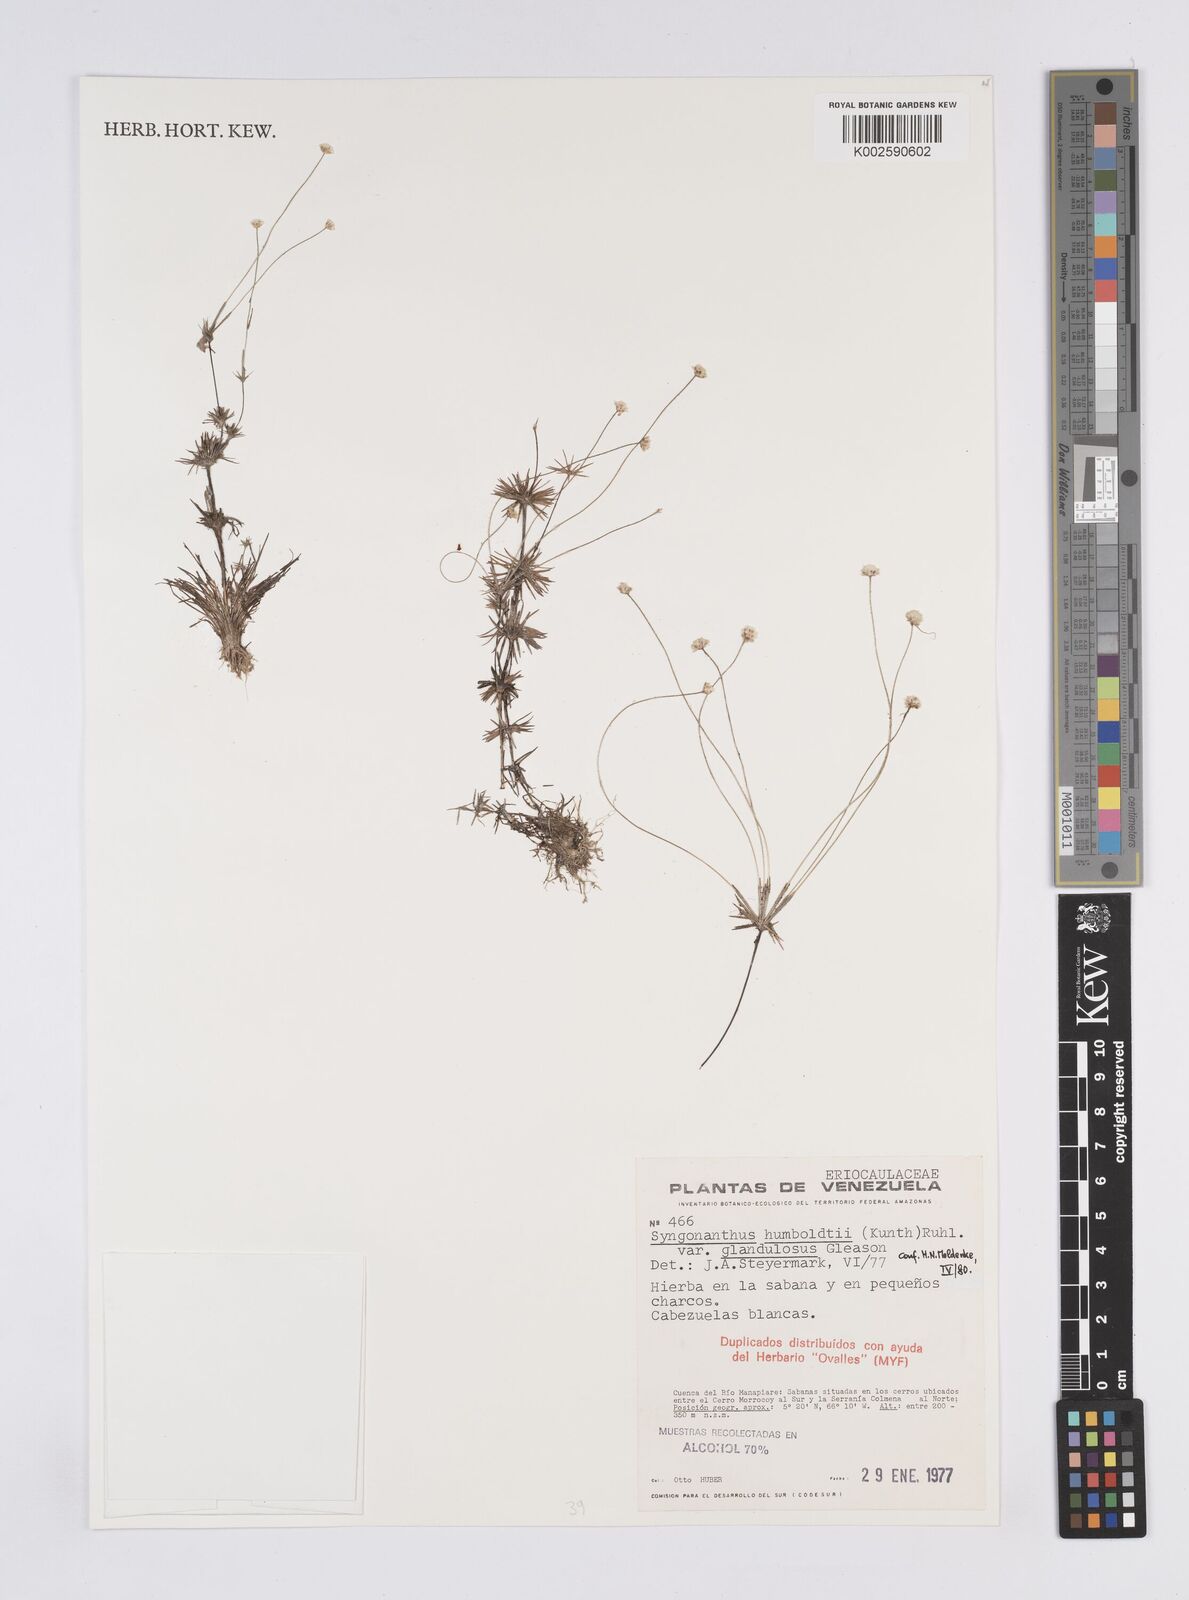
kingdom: Plantae
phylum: Tracheophyta
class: Liliopsida
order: Poales
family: Eriocaulaceae
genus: Syngonanthus
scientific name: Syngonanthus humboldtii
